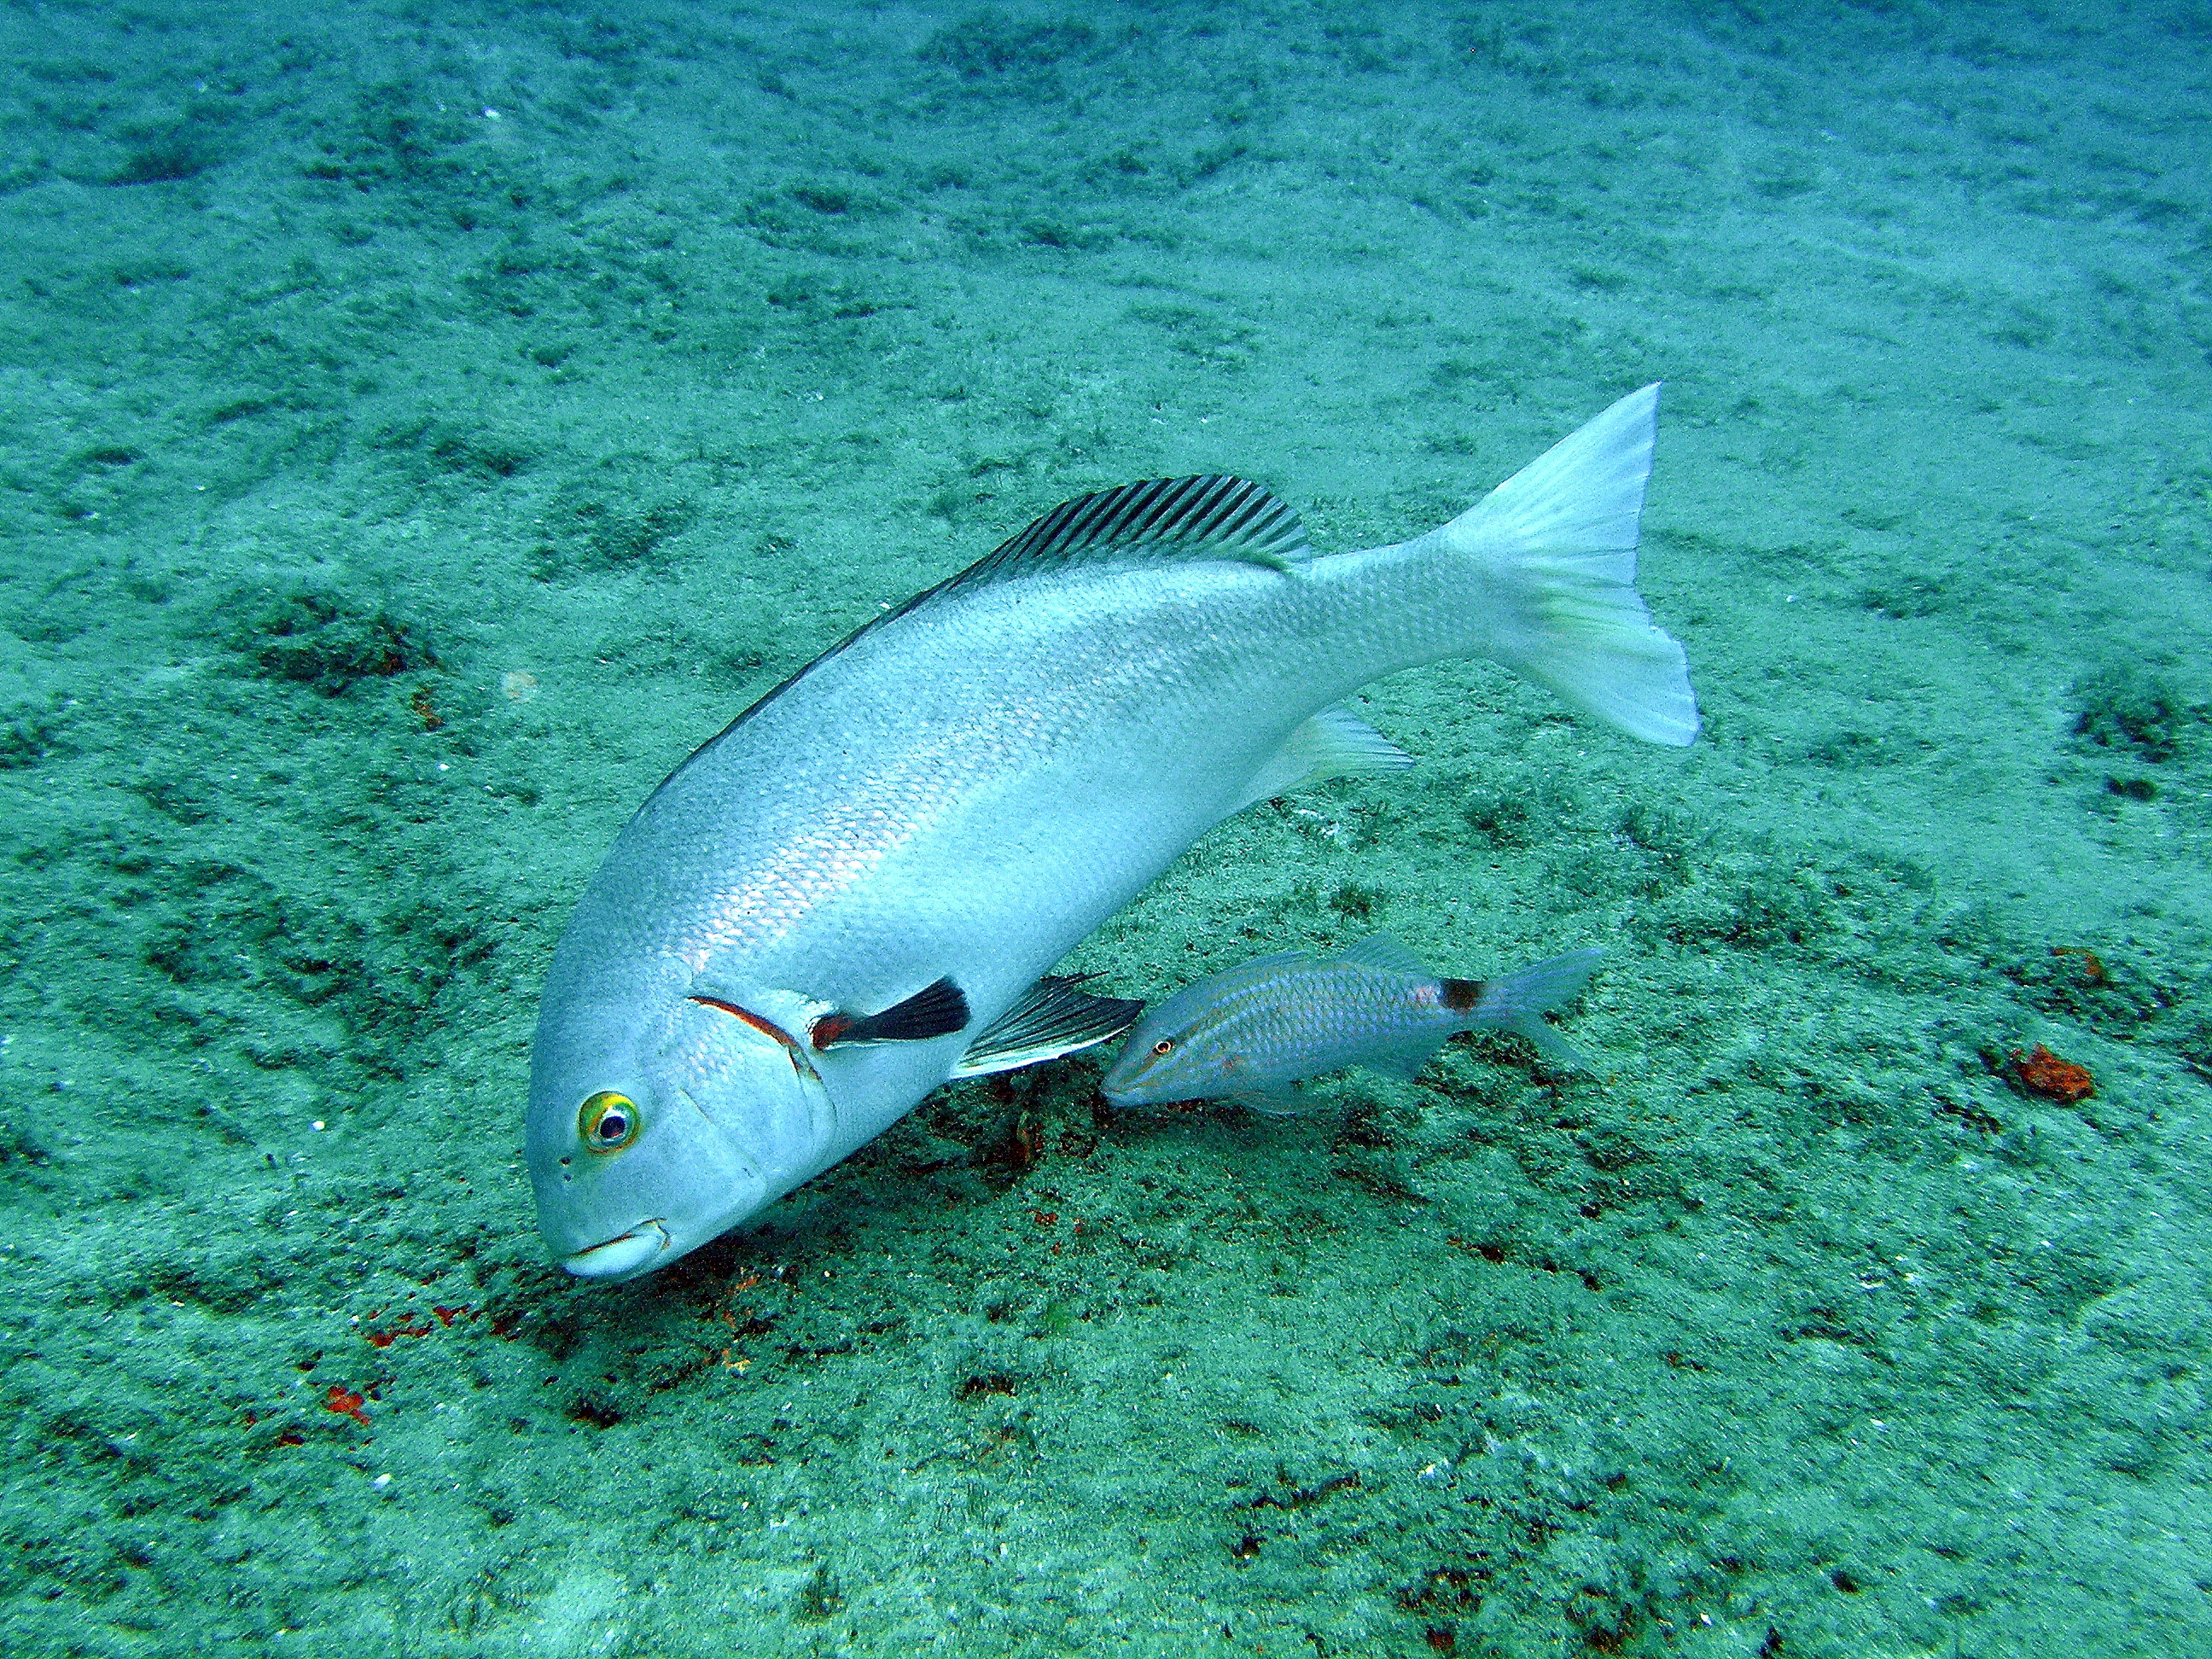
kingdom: Animalia
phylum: Chordata
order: Perciformes
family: Haemulidae
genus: Plectorhinchus
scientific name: Plectorhinchus schotaf
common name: Minstrel sweetlips
